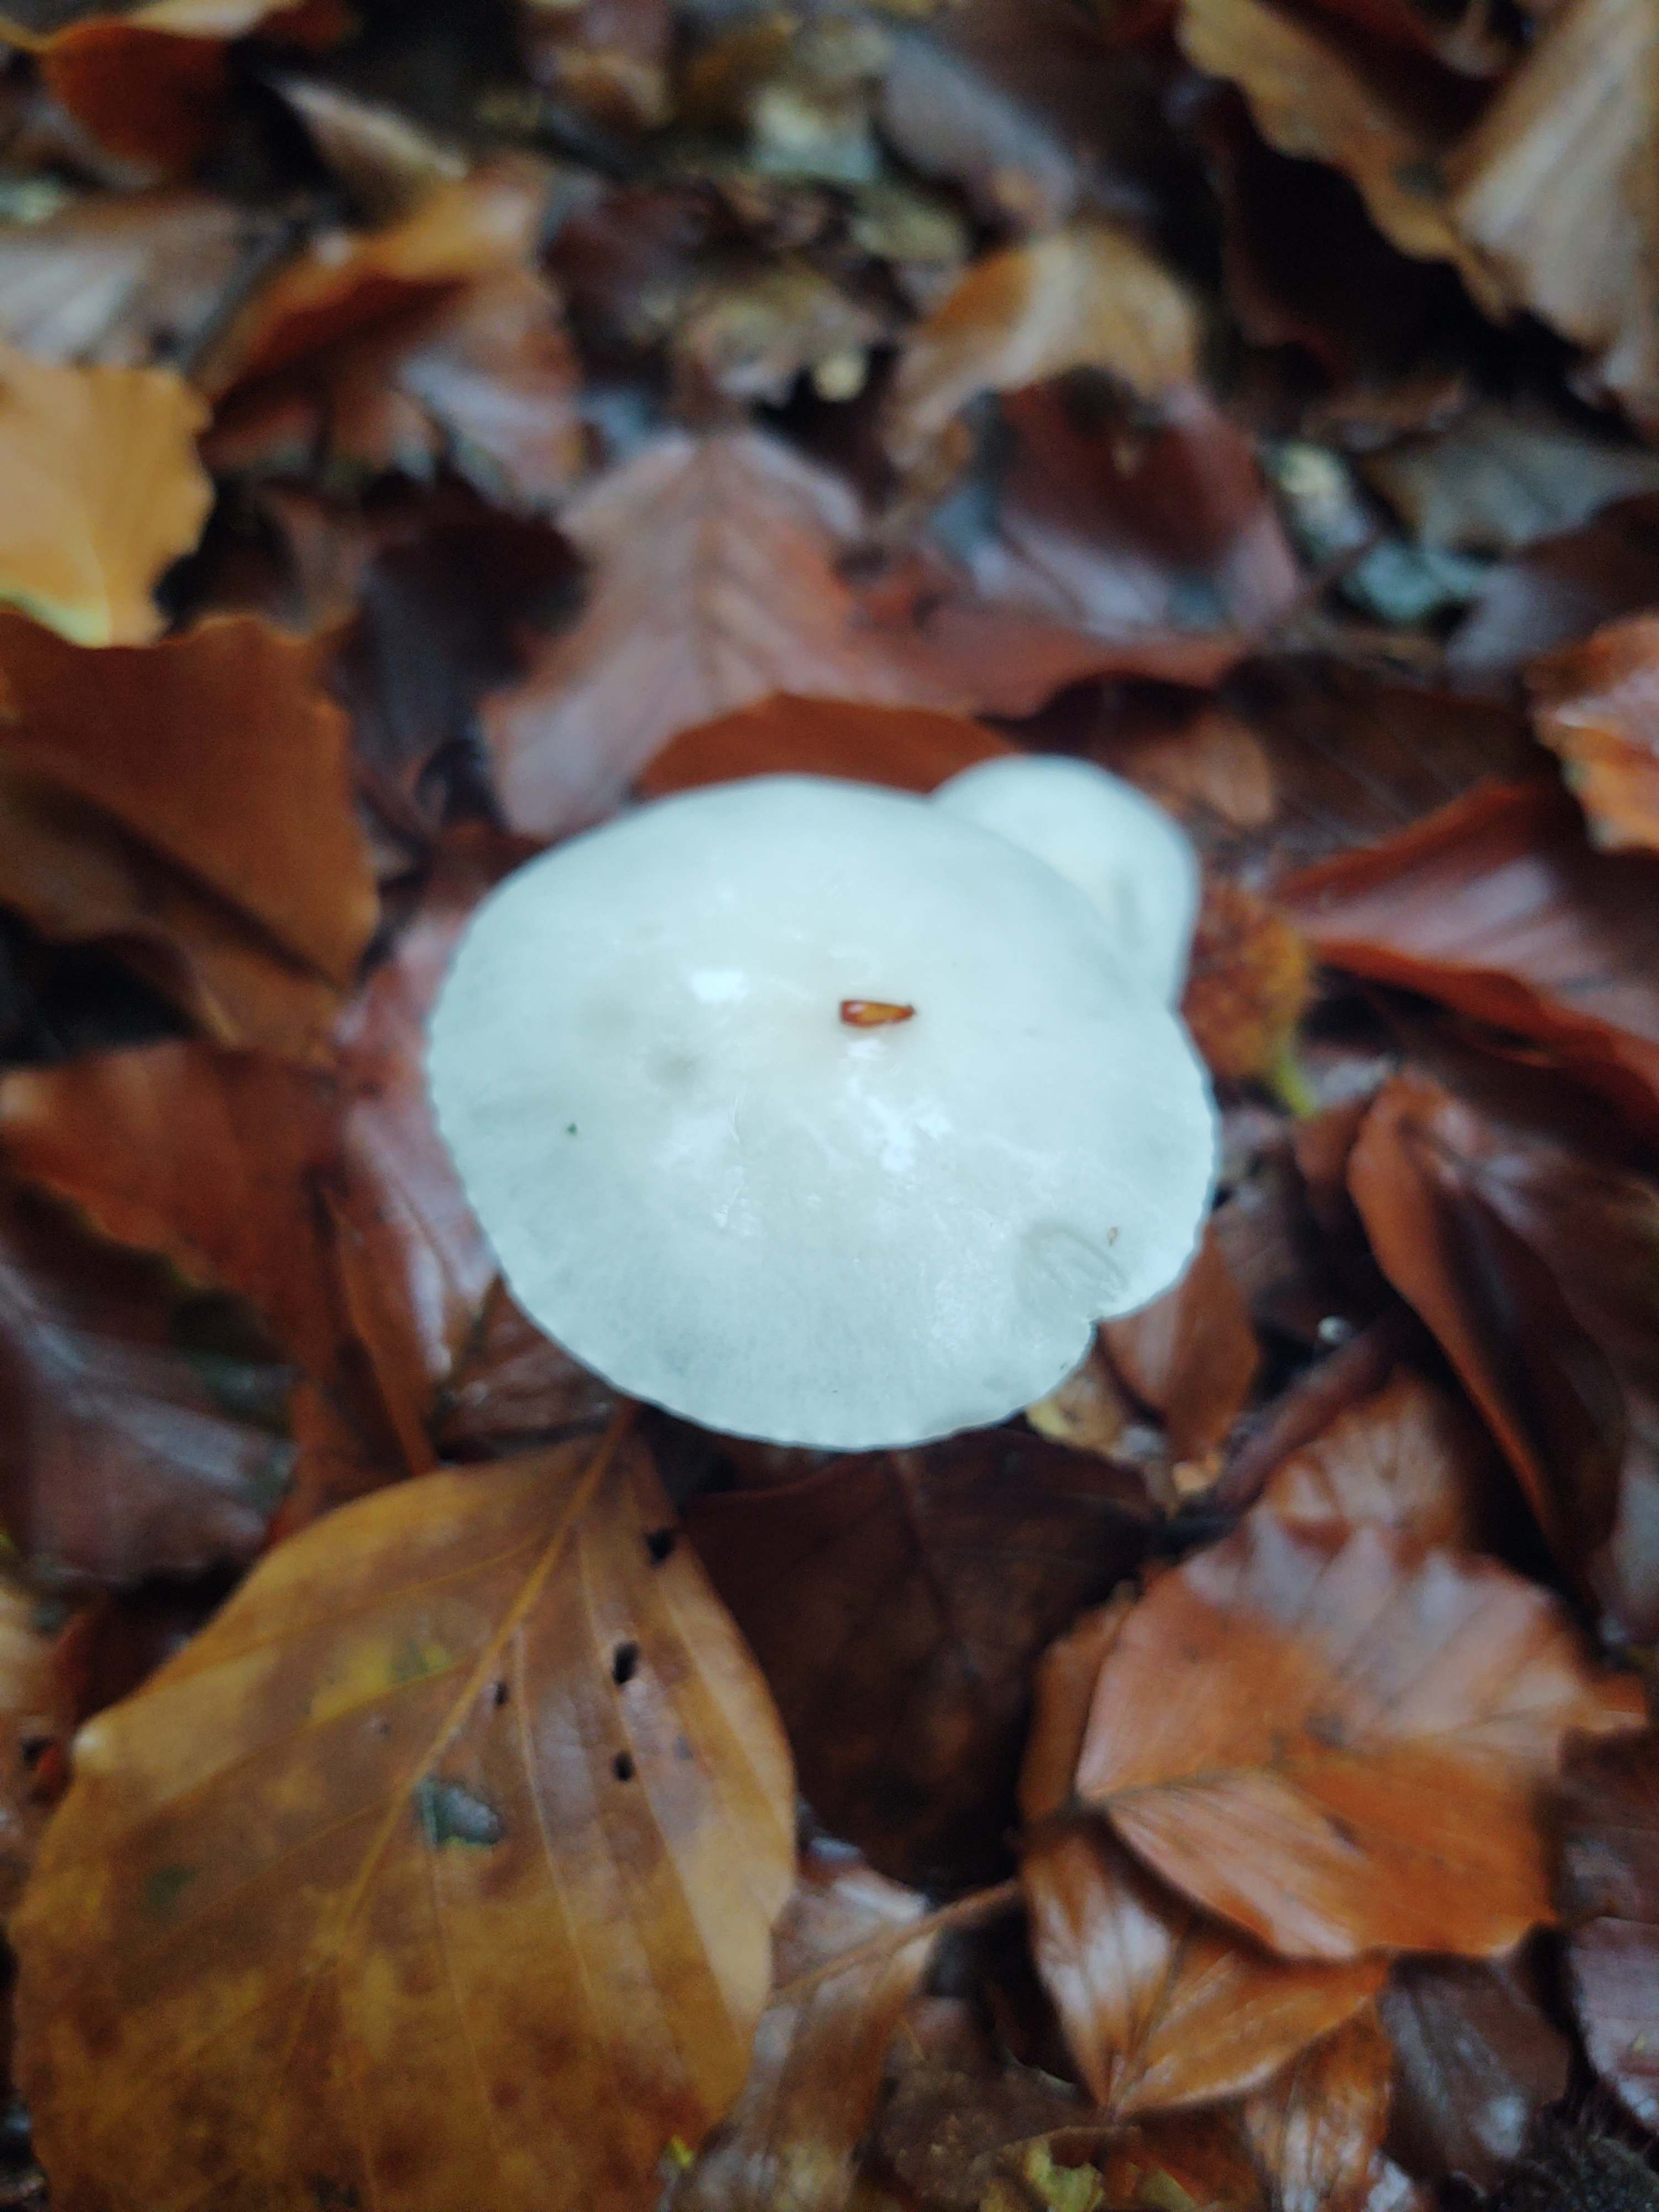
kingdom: Fungi
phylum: Basidiomycota
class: Agaricomycetes
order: Agaricales
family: Hygrophoraceae
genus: Hygrophorus
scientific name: Hygrophorus eburneus
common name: elfenbens-sneglehat
